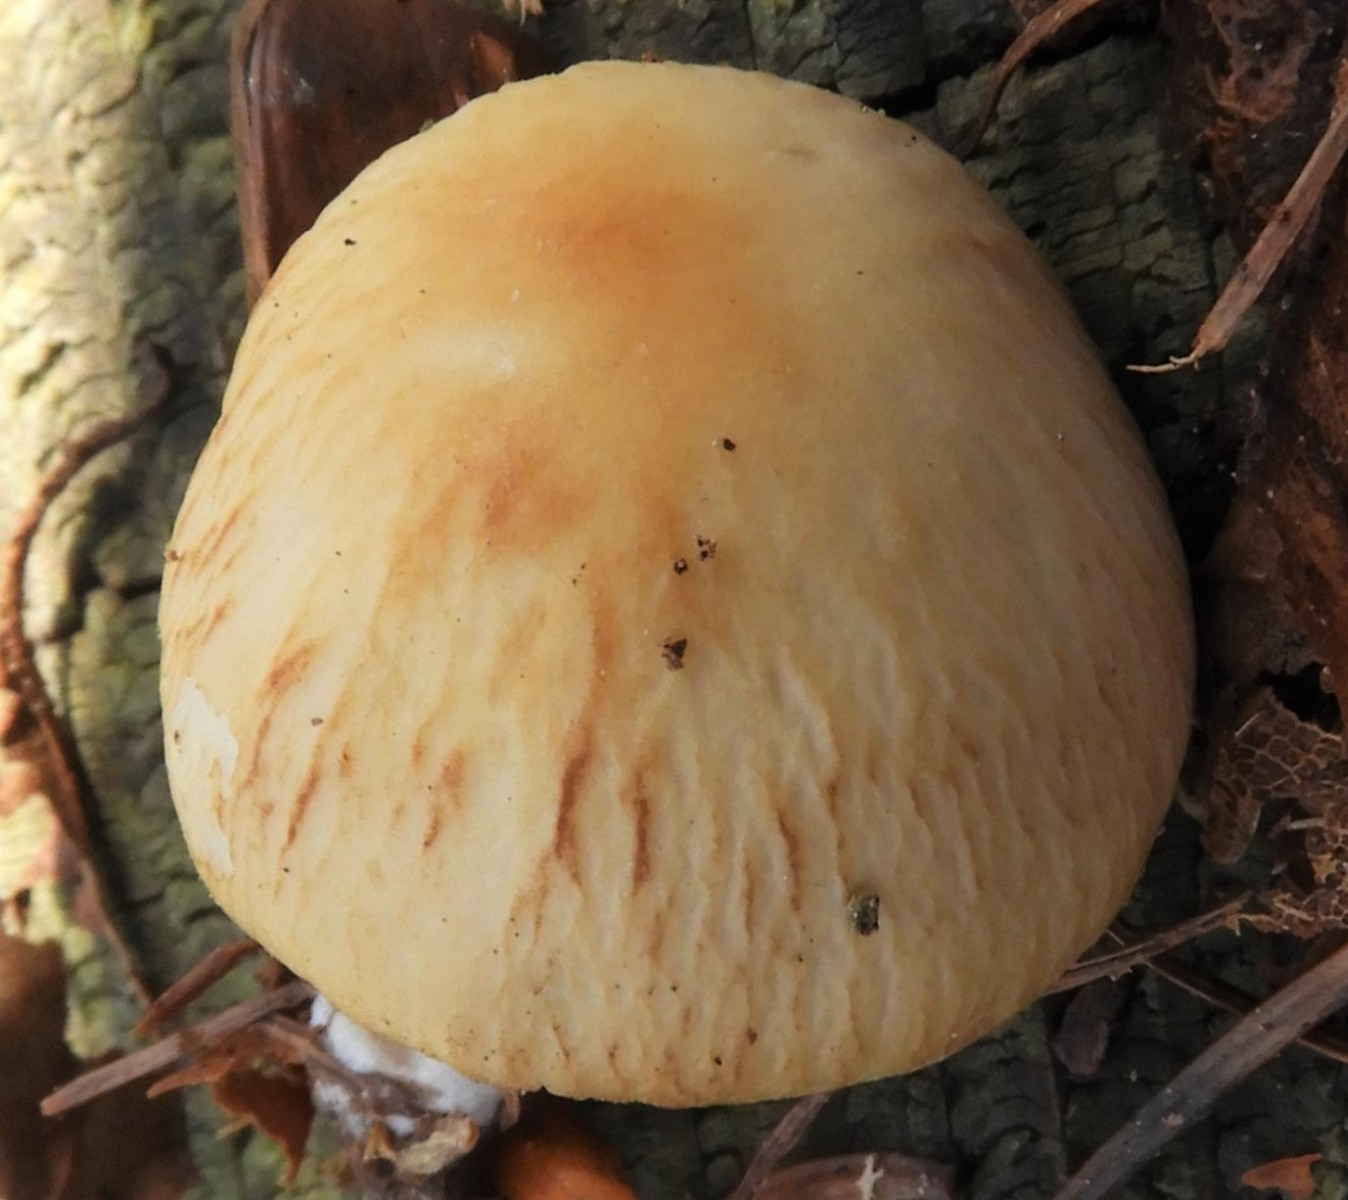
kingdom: Fungi
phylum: Basidiomycota
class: Agaricomycetes
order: Agaricales
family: Psathyrellaceae
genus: Psathyrella
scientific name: Psathyrella
